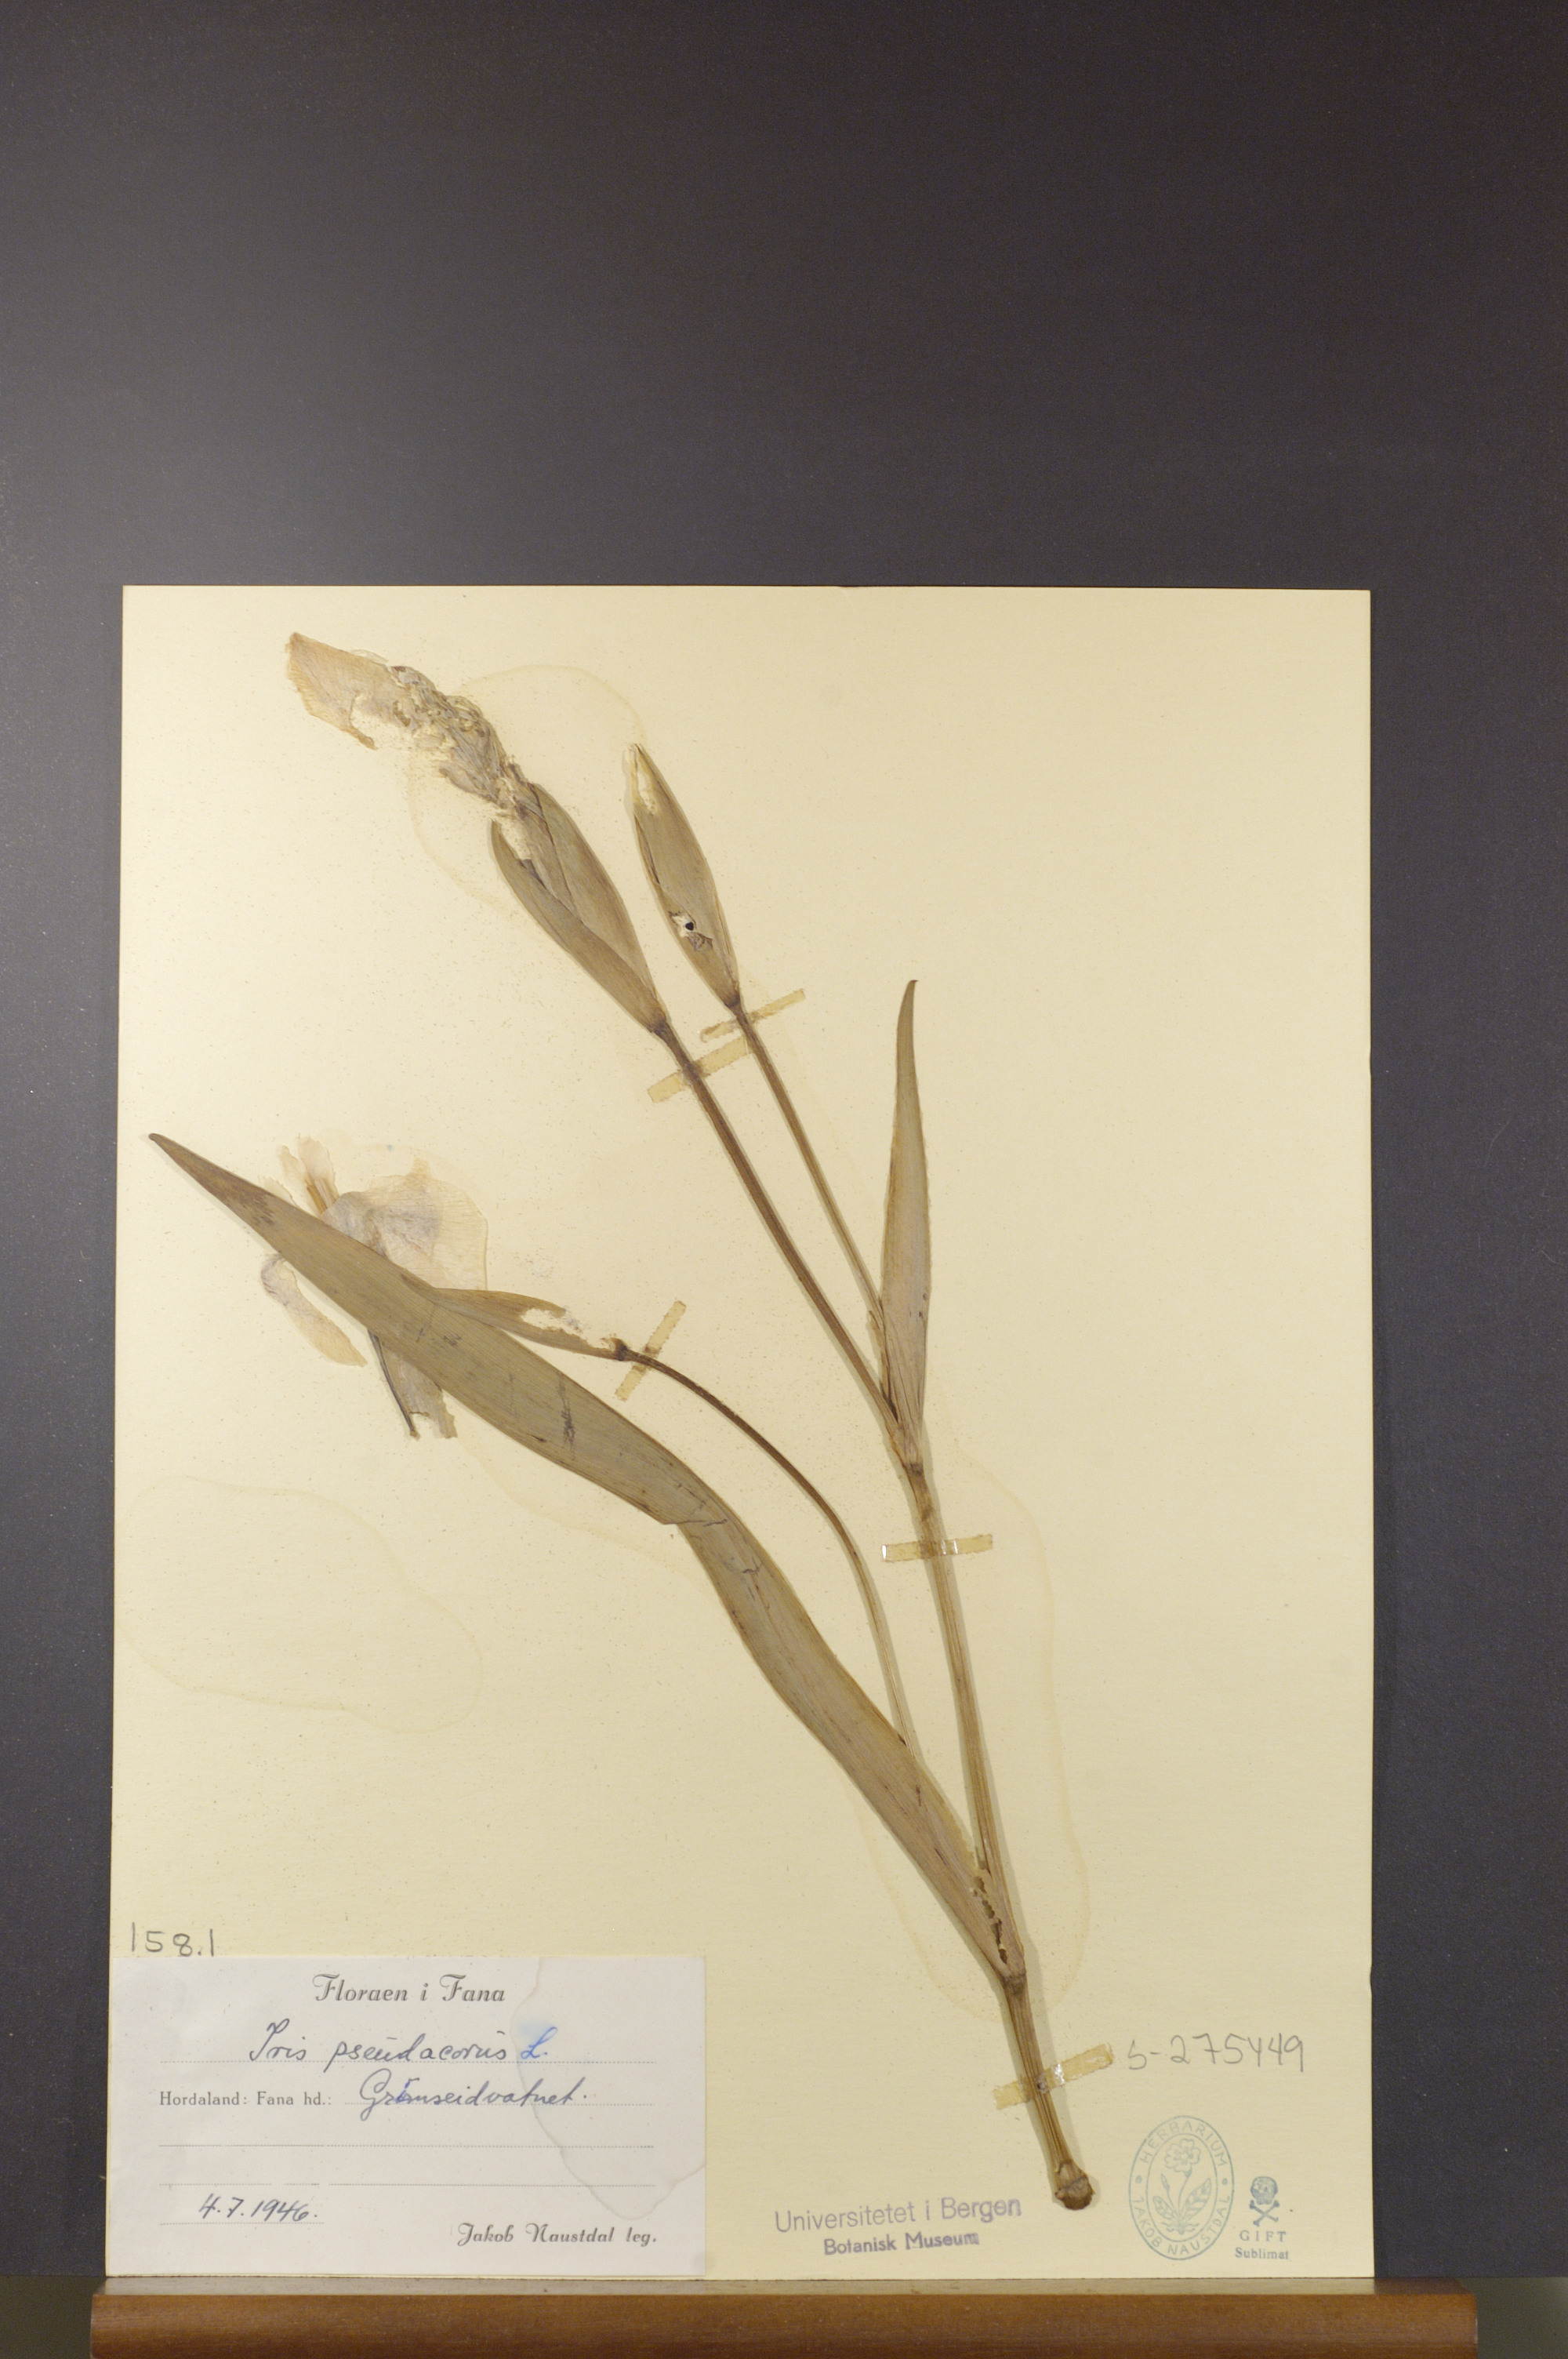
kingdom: Plantae
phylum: Tracheophyta
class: Liliopsida
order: Asparagales
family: Iridaceae
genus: Iris
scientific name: Iris pseudacorus
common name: Yellow flag
